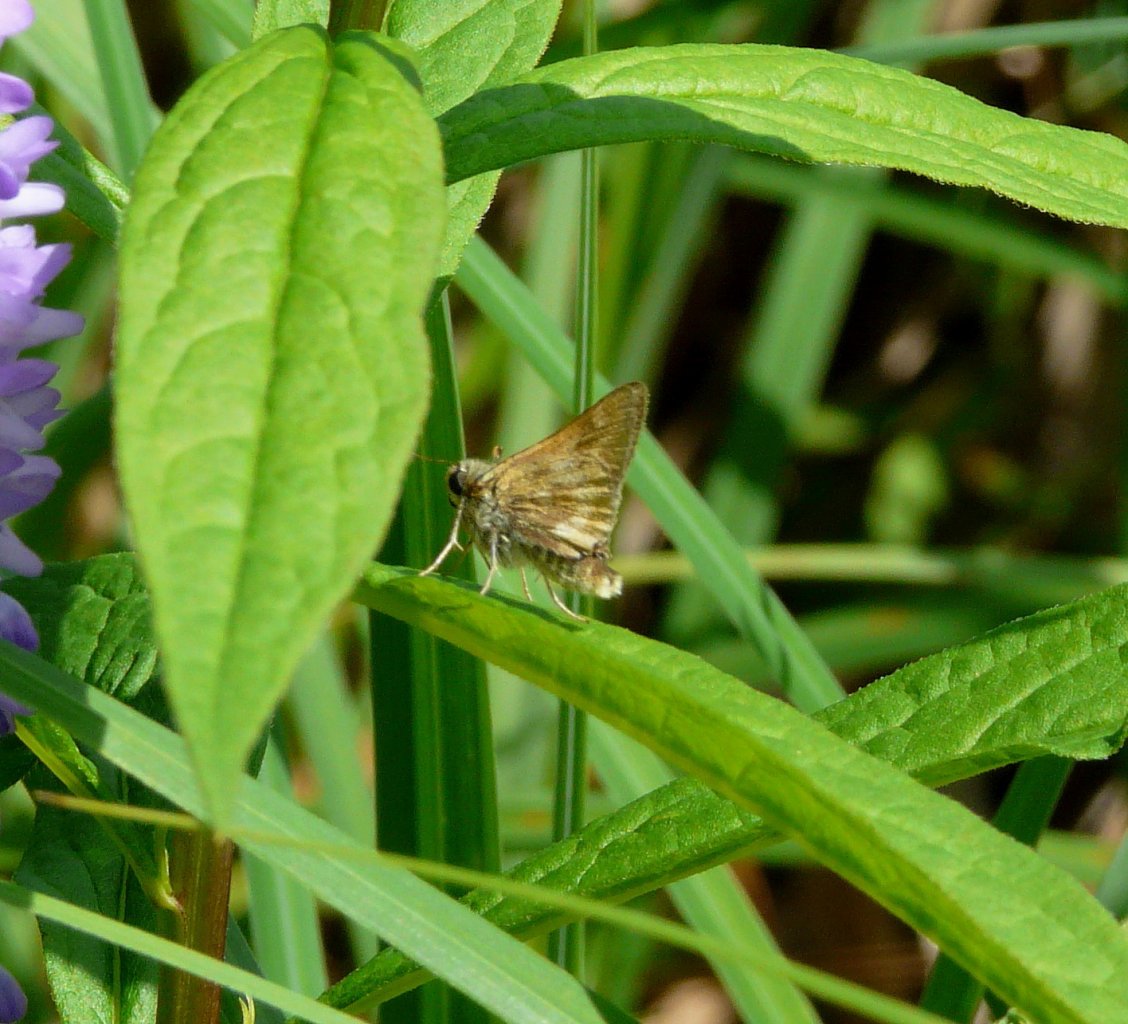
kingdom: Animalia
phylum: Arthropoda
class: Insecta
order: Lepidoptera
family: Hesperiidae
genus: Polites
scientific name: Polites
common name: Long Dash Skipper
